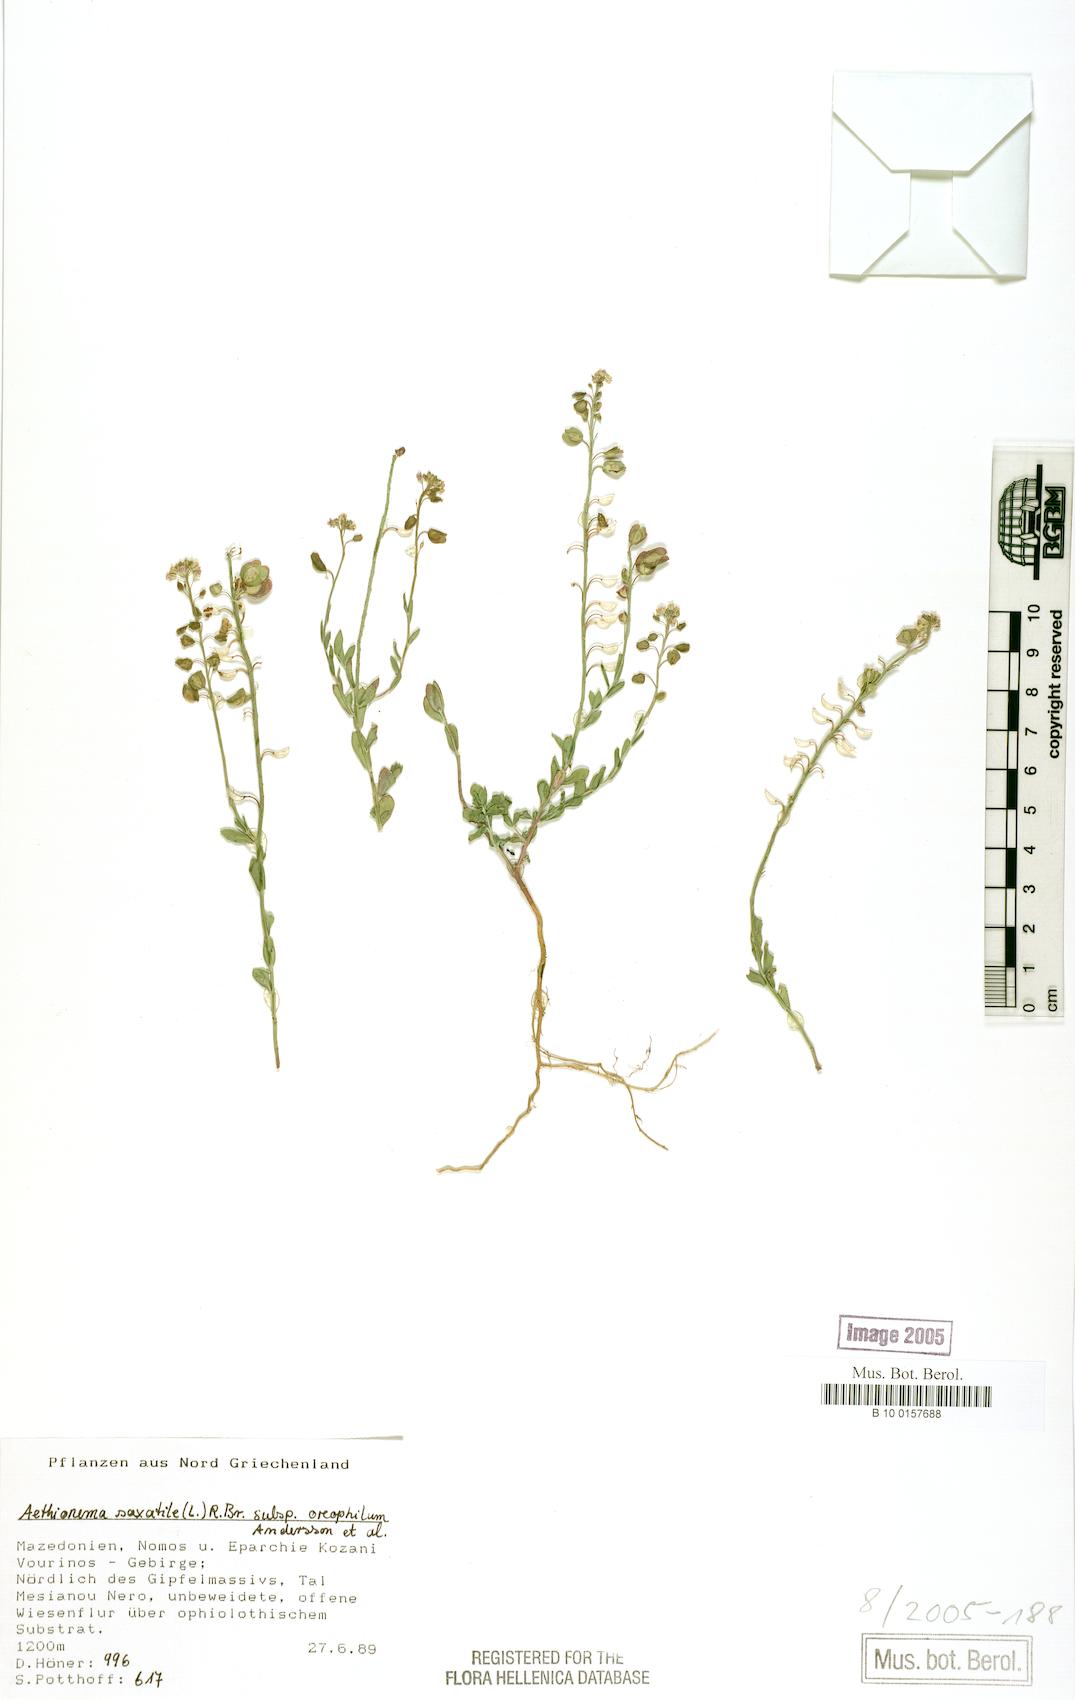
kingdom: Plantae
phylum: Tracheophyta
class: Magnoliopsida
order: Brassicales
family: Brassicaceae
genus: Aethionema
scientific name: Aethionema saxatile
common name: Burnt candytuft
